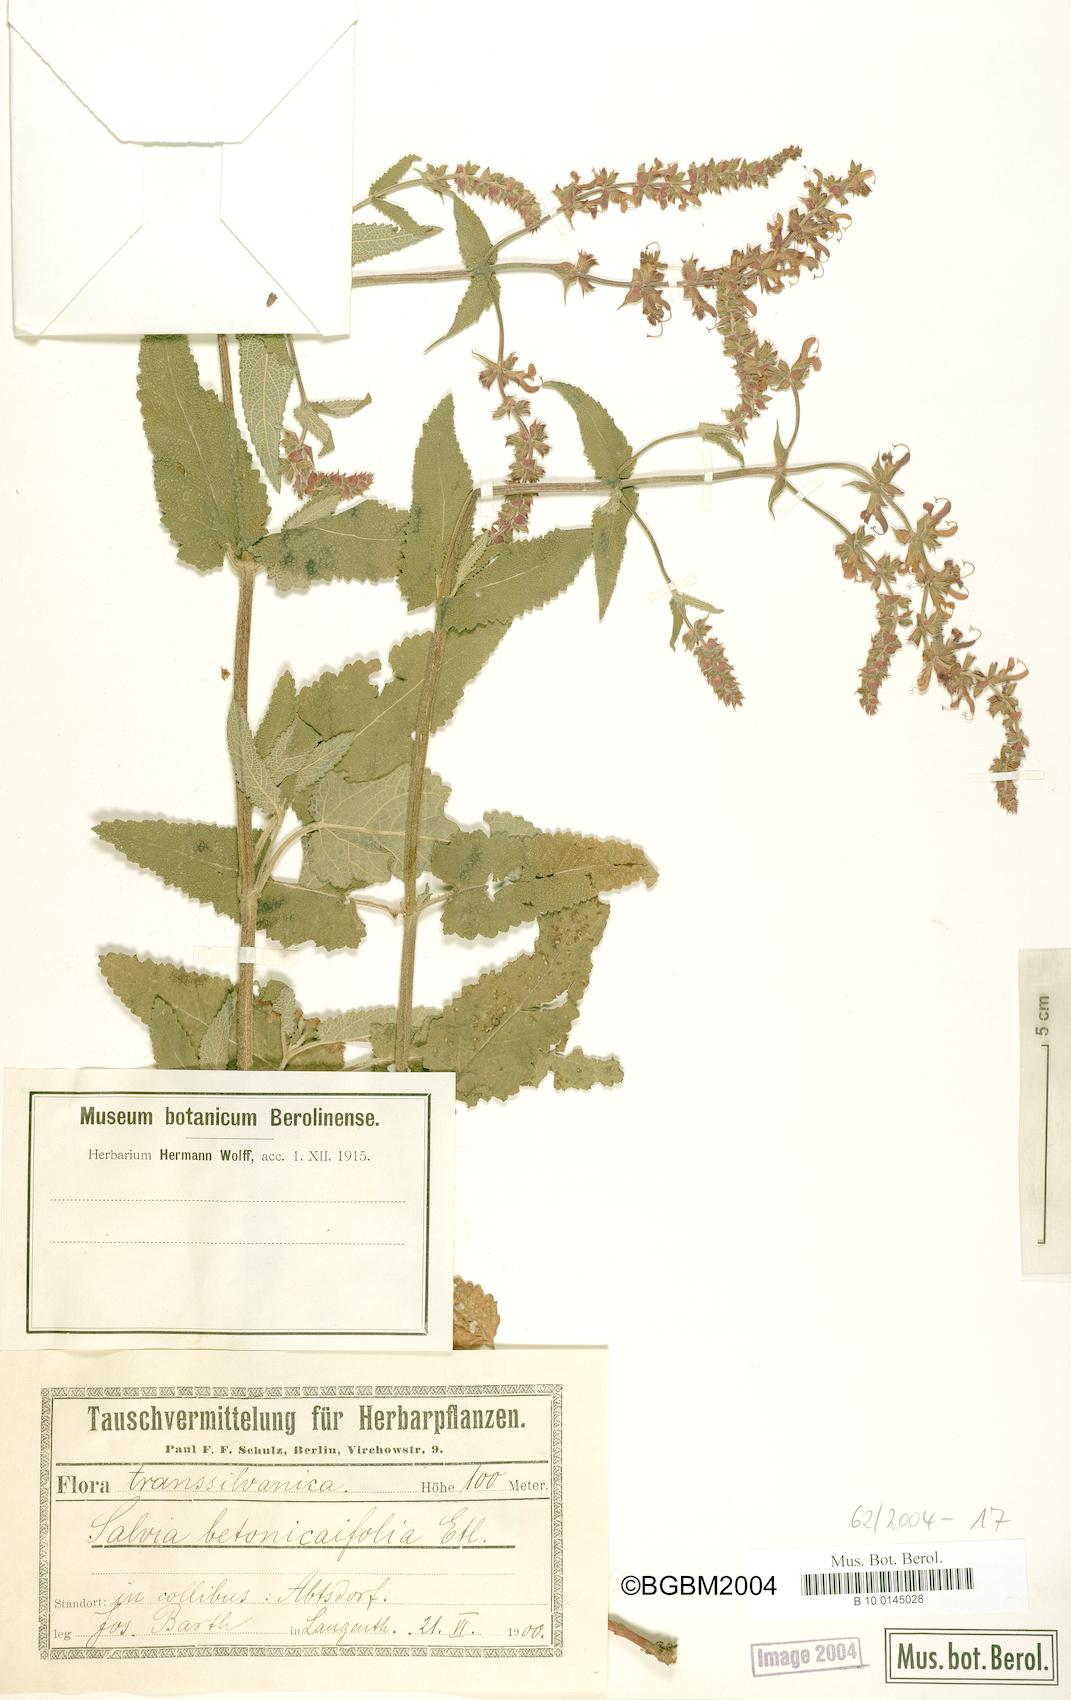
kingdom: Plantae
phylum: Tracheophyta
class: Magnoliopsida
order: Lamiales
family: Lamiaceae
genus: Salvia
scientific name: Salvia
